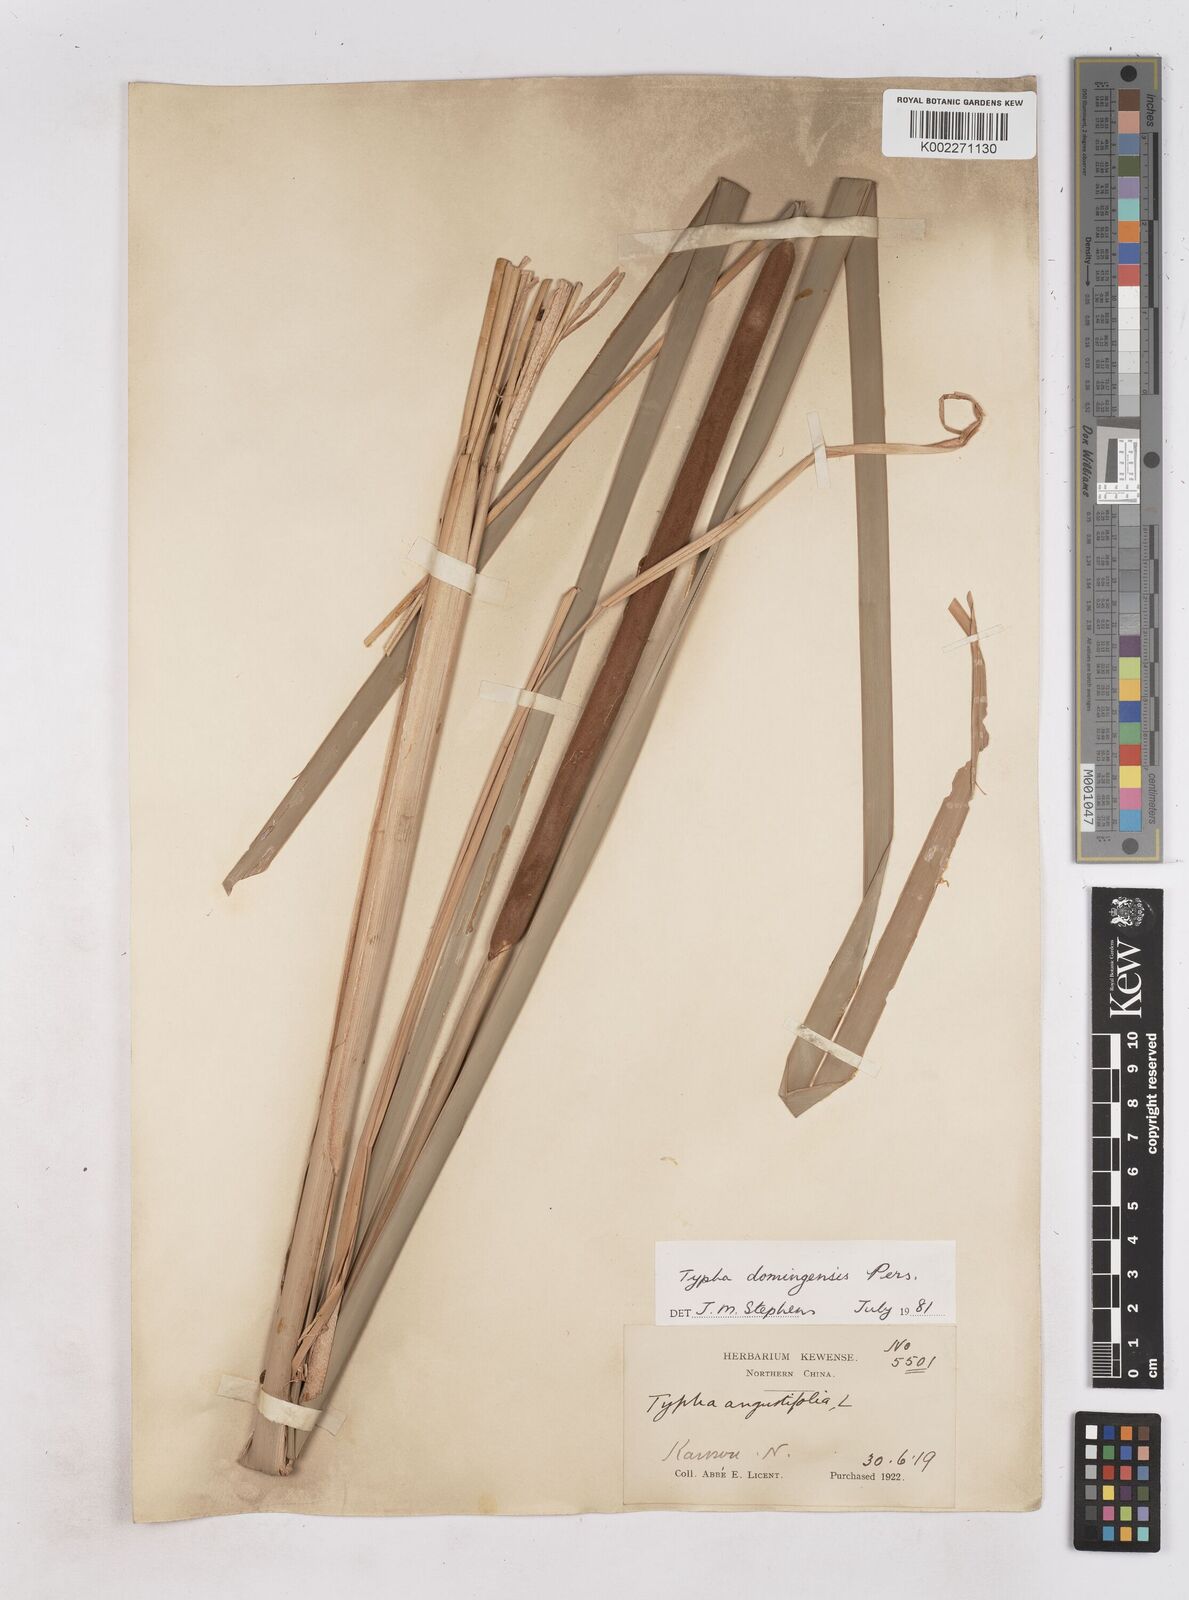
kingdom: Plantae
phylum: Tracheophyta
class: Liliopsida
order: Poales
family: Typhaceae
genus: Typha
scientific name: Typha domingensis
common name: Southern cattail
